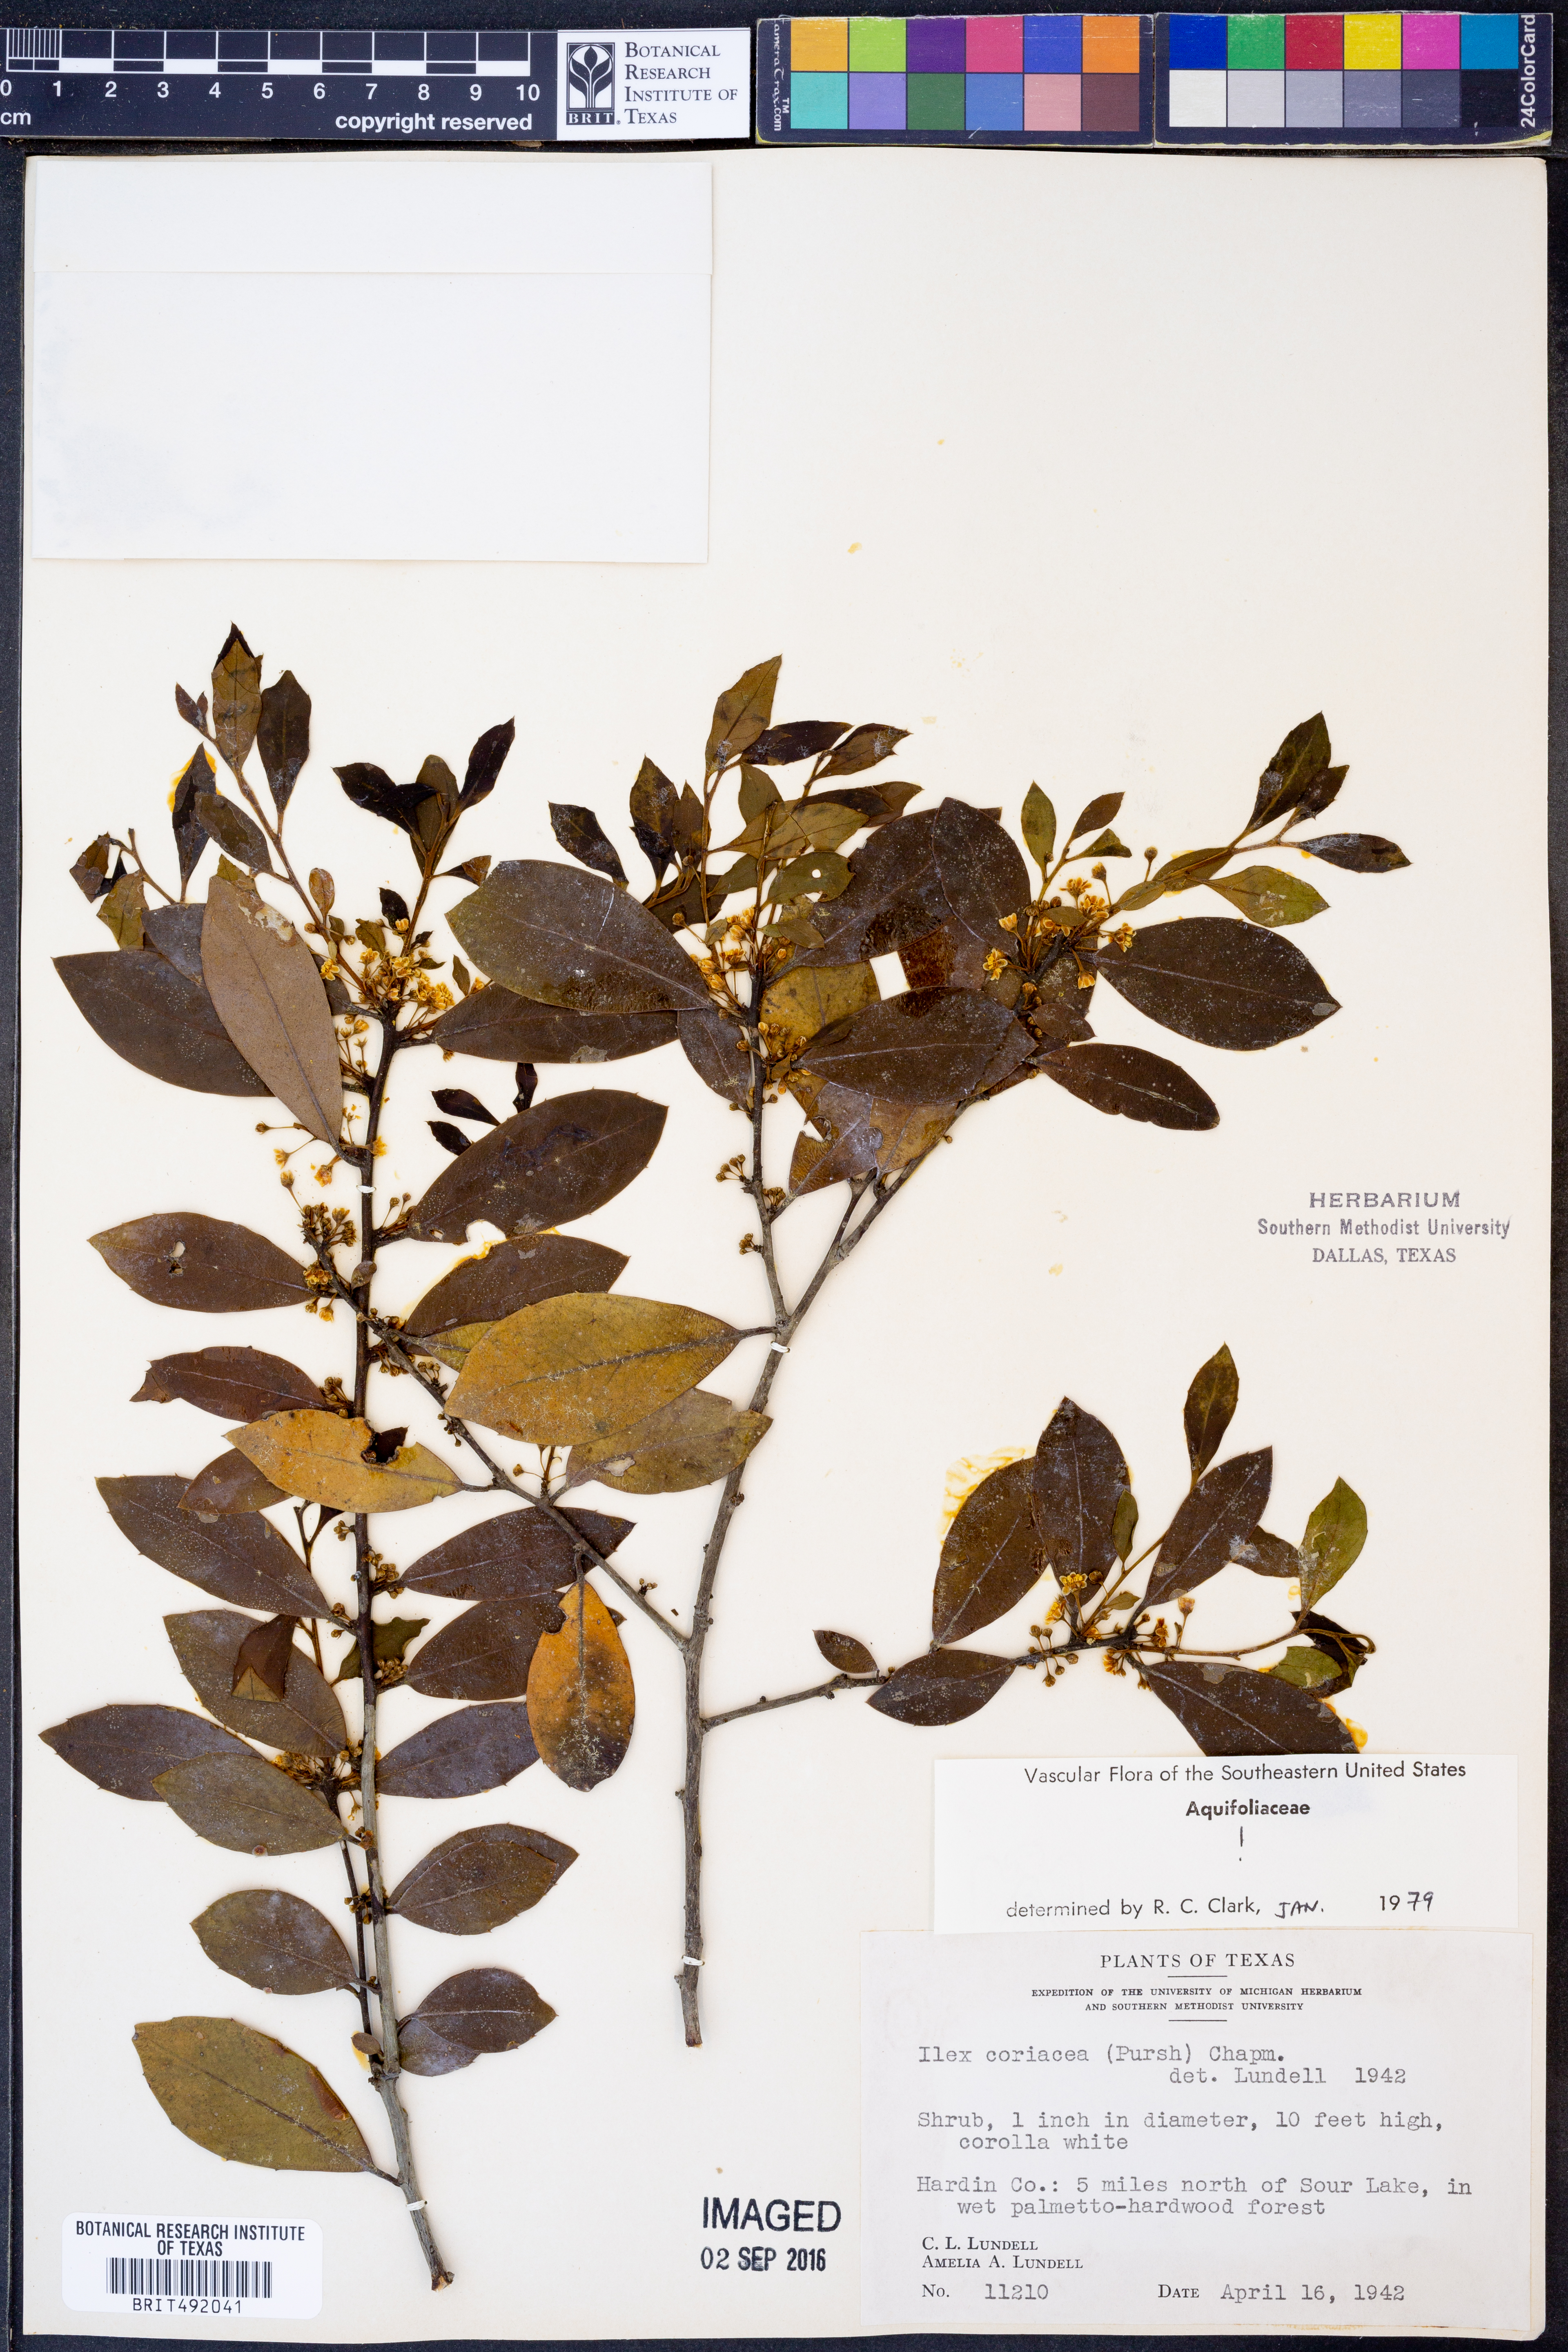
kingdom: Plantae
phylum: Tracheophyta
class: Magnoliopsida
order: Aquifoliales
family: Aquifoliaceae
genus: Ilex
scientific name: Ilex coriacea
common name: Sweet gallberry
